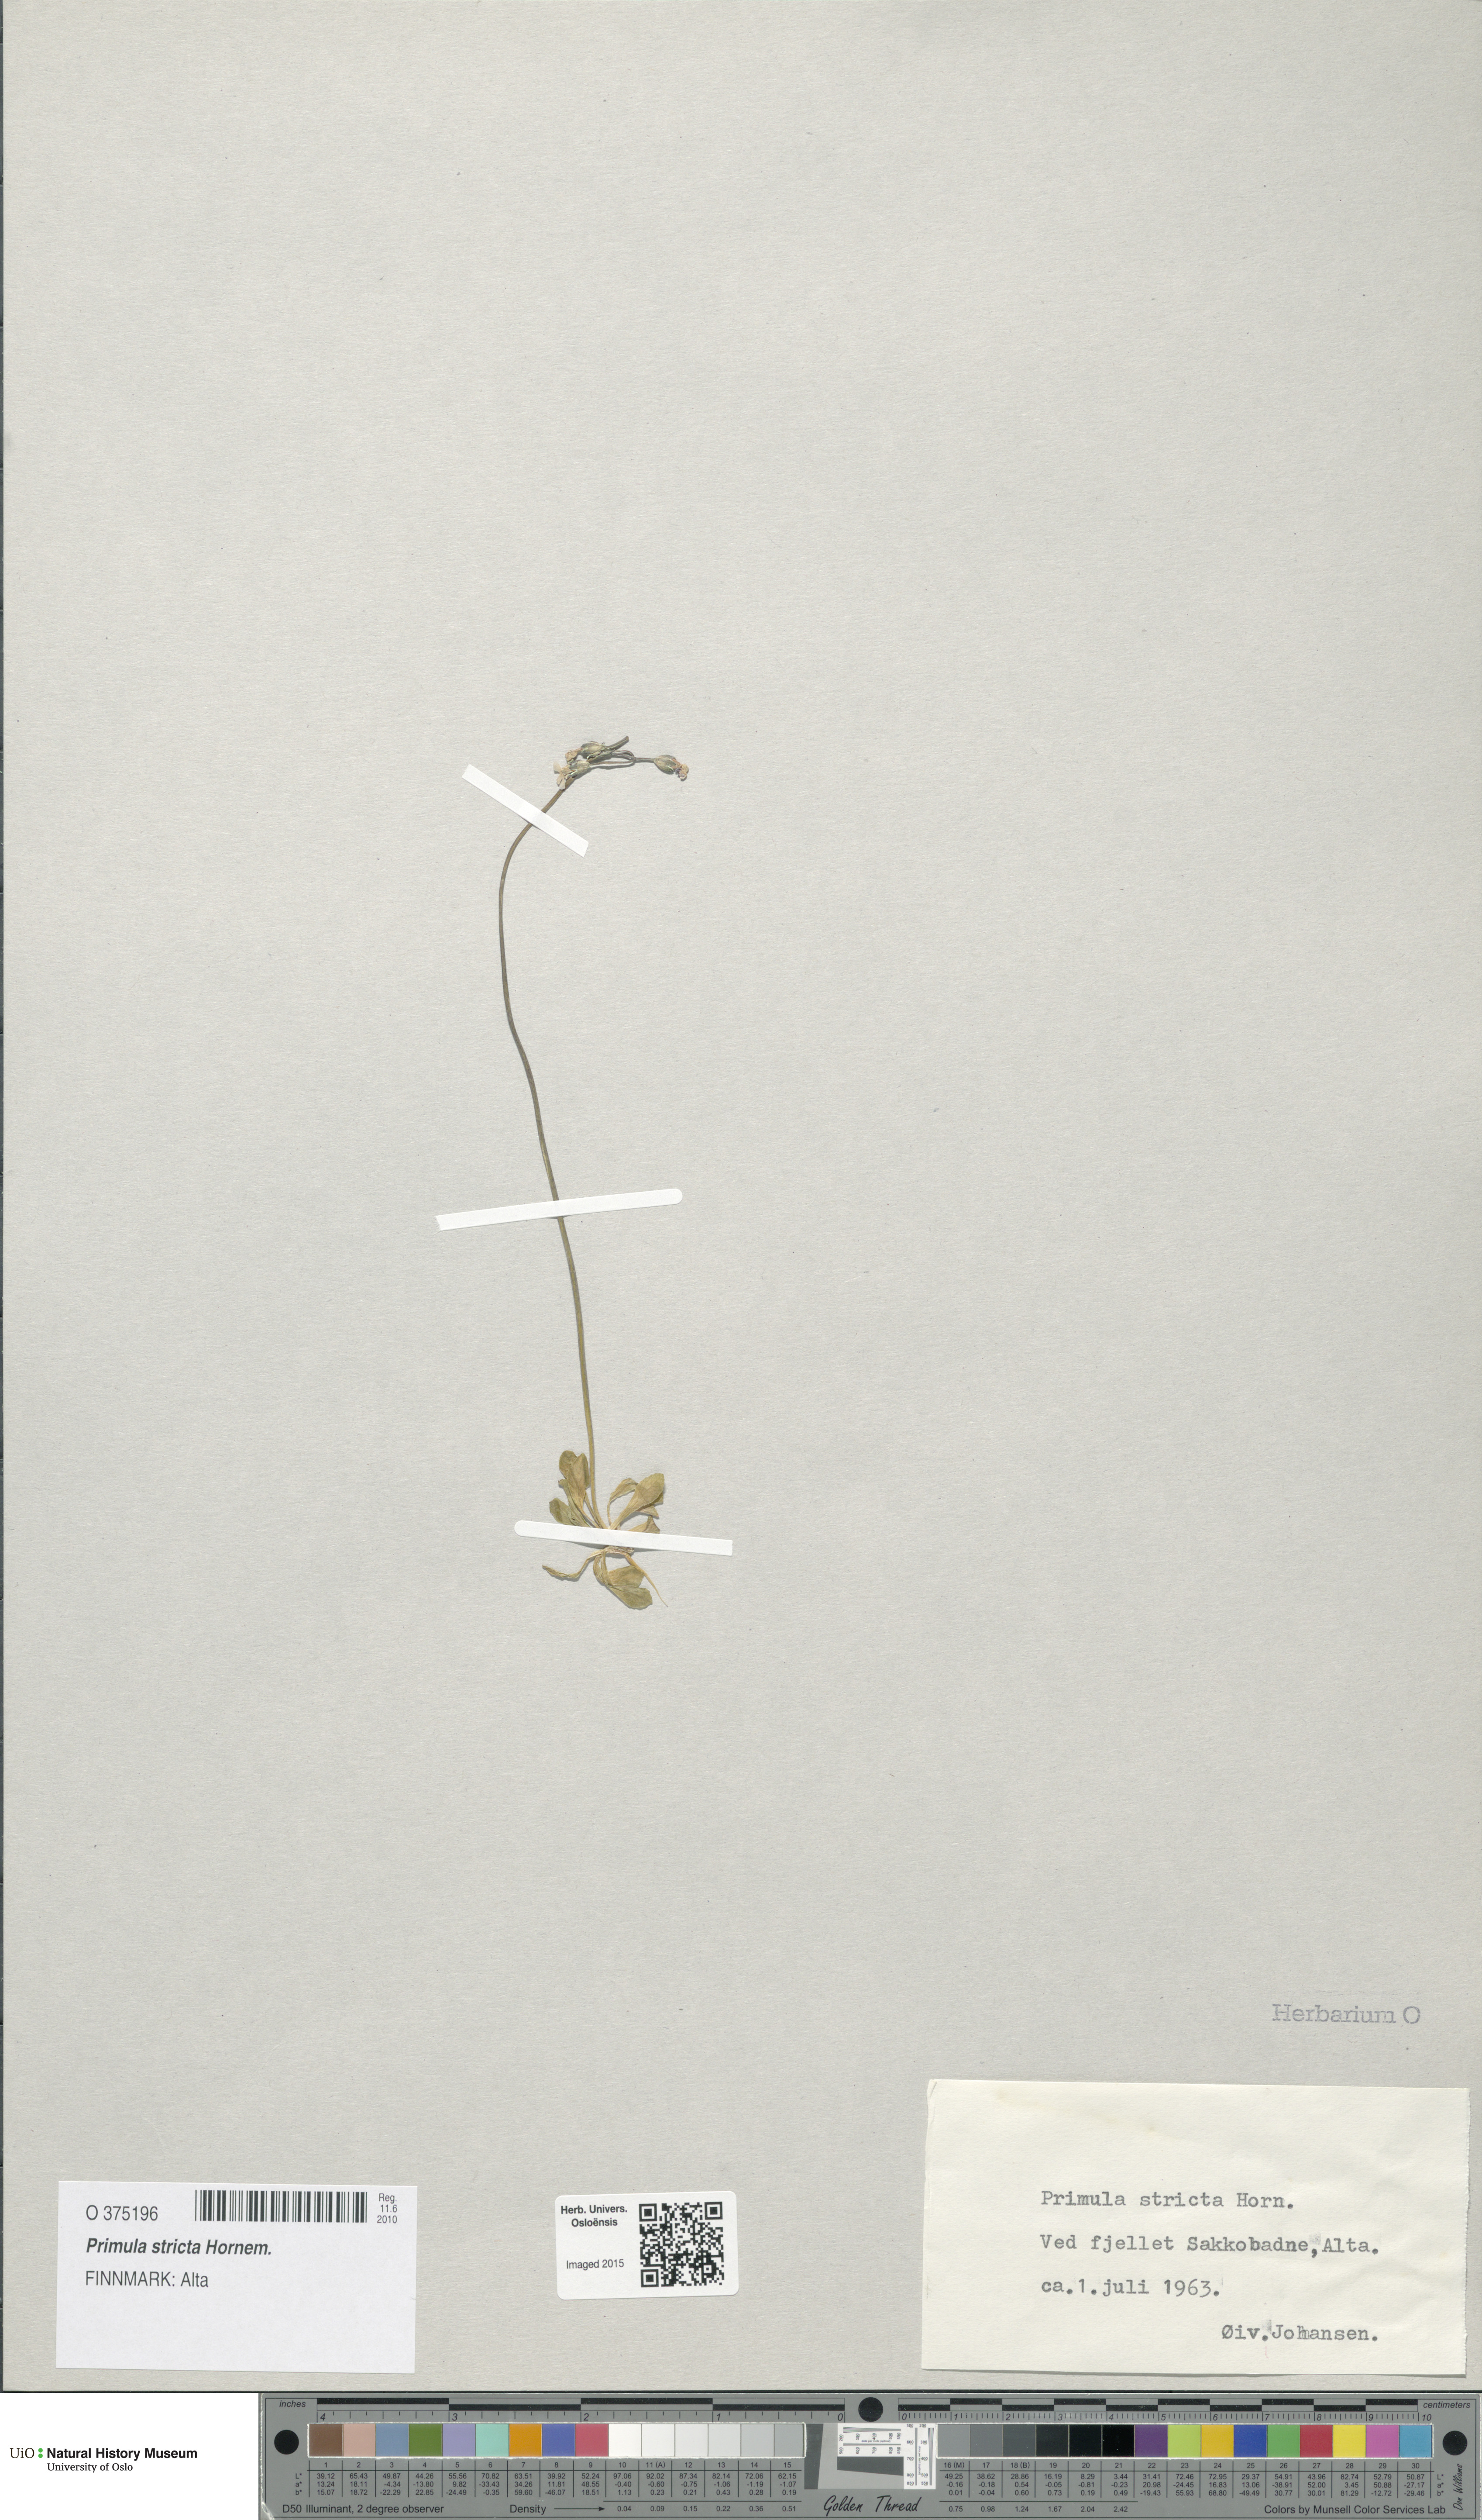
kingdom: Plantae
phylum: Tracheophyta
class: Magnoliopsida
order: Ericales
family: Primulaceae
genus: Primula
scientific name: Primula stricta
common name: Coastal primrose
